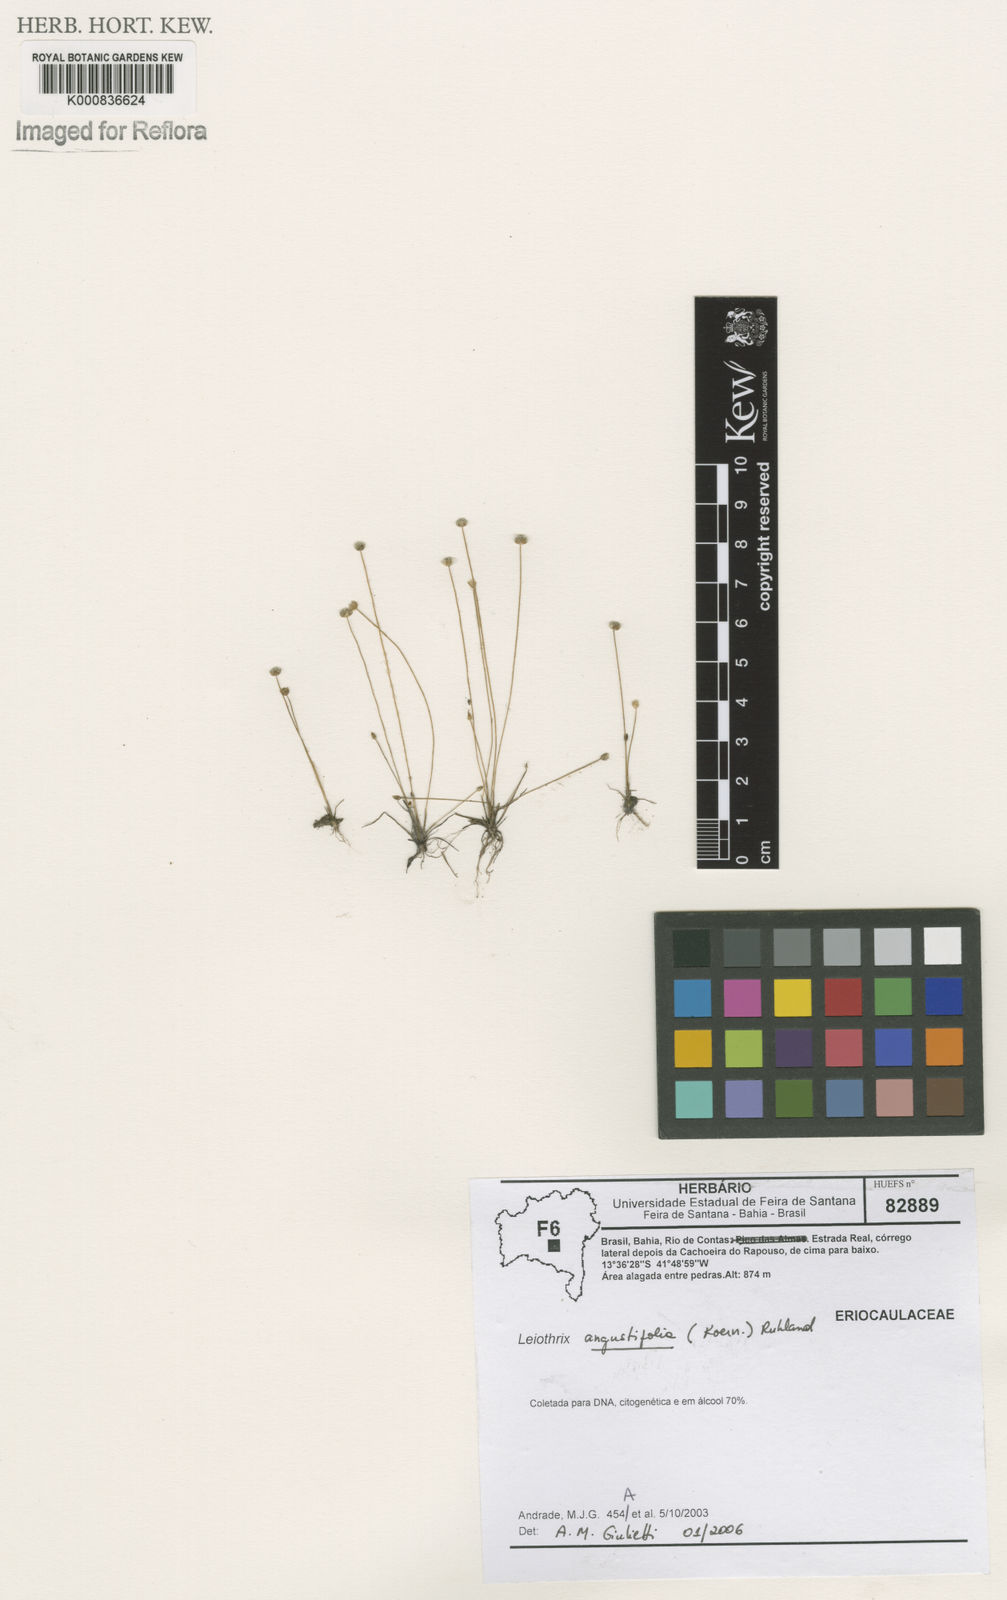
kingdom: Plantae
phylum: Tracheophyta
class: Liliopsida
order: Poales
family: Eriocaulaceae
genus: Leiothrix
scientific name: Leiothrix angustifolia
